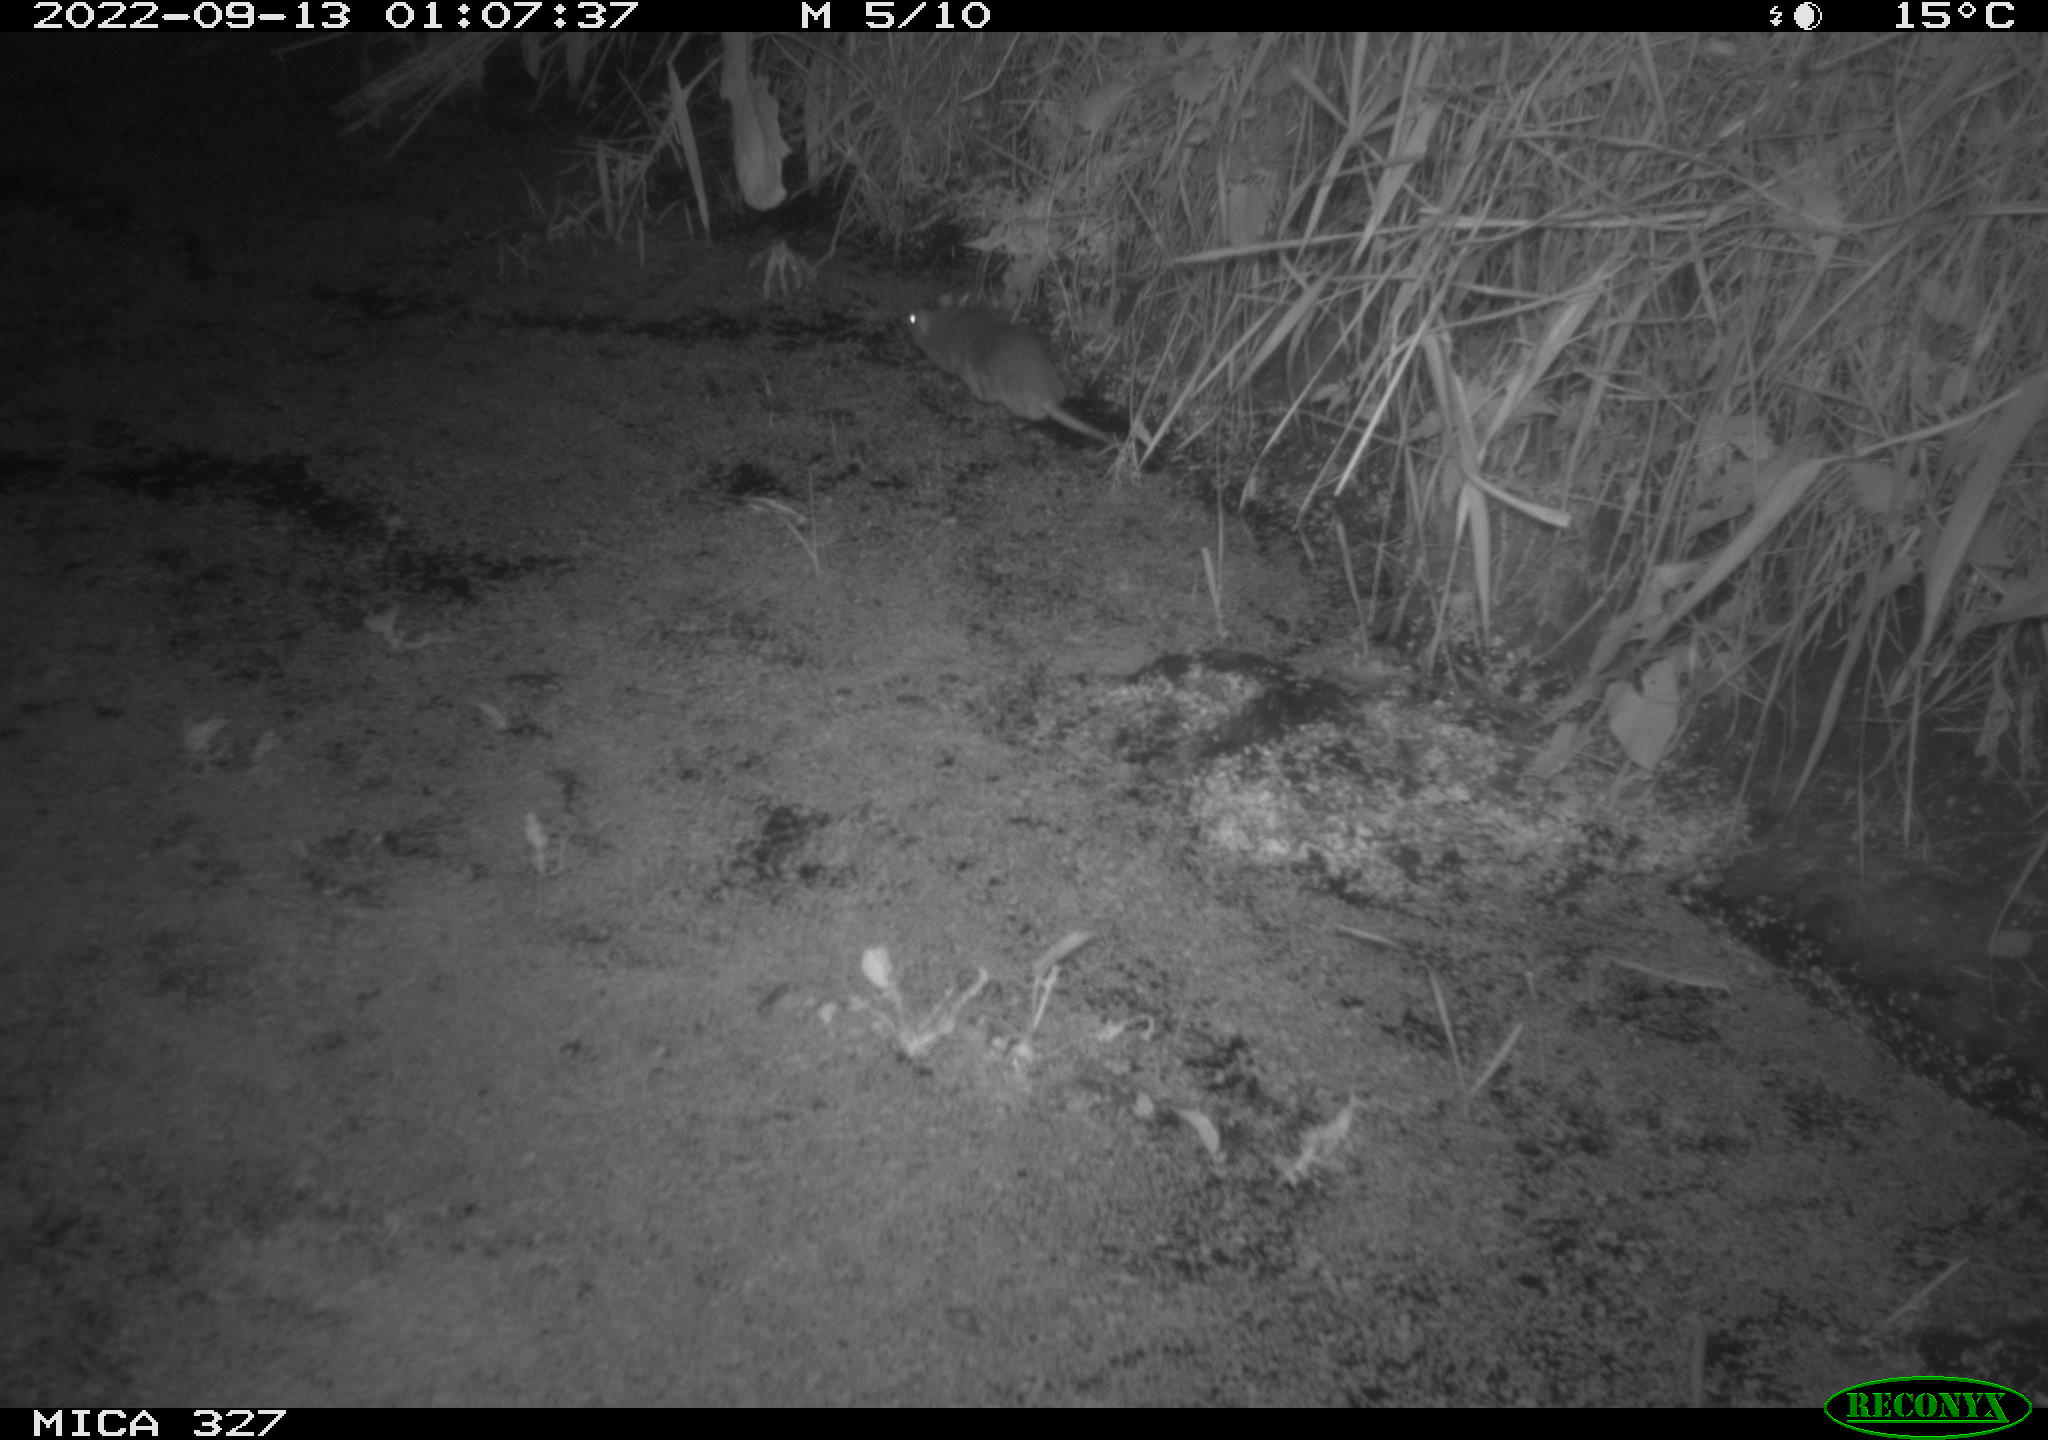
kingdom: Animalia
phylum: Chordata
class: Mammalia
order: Rodentia
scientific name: Rodentia
